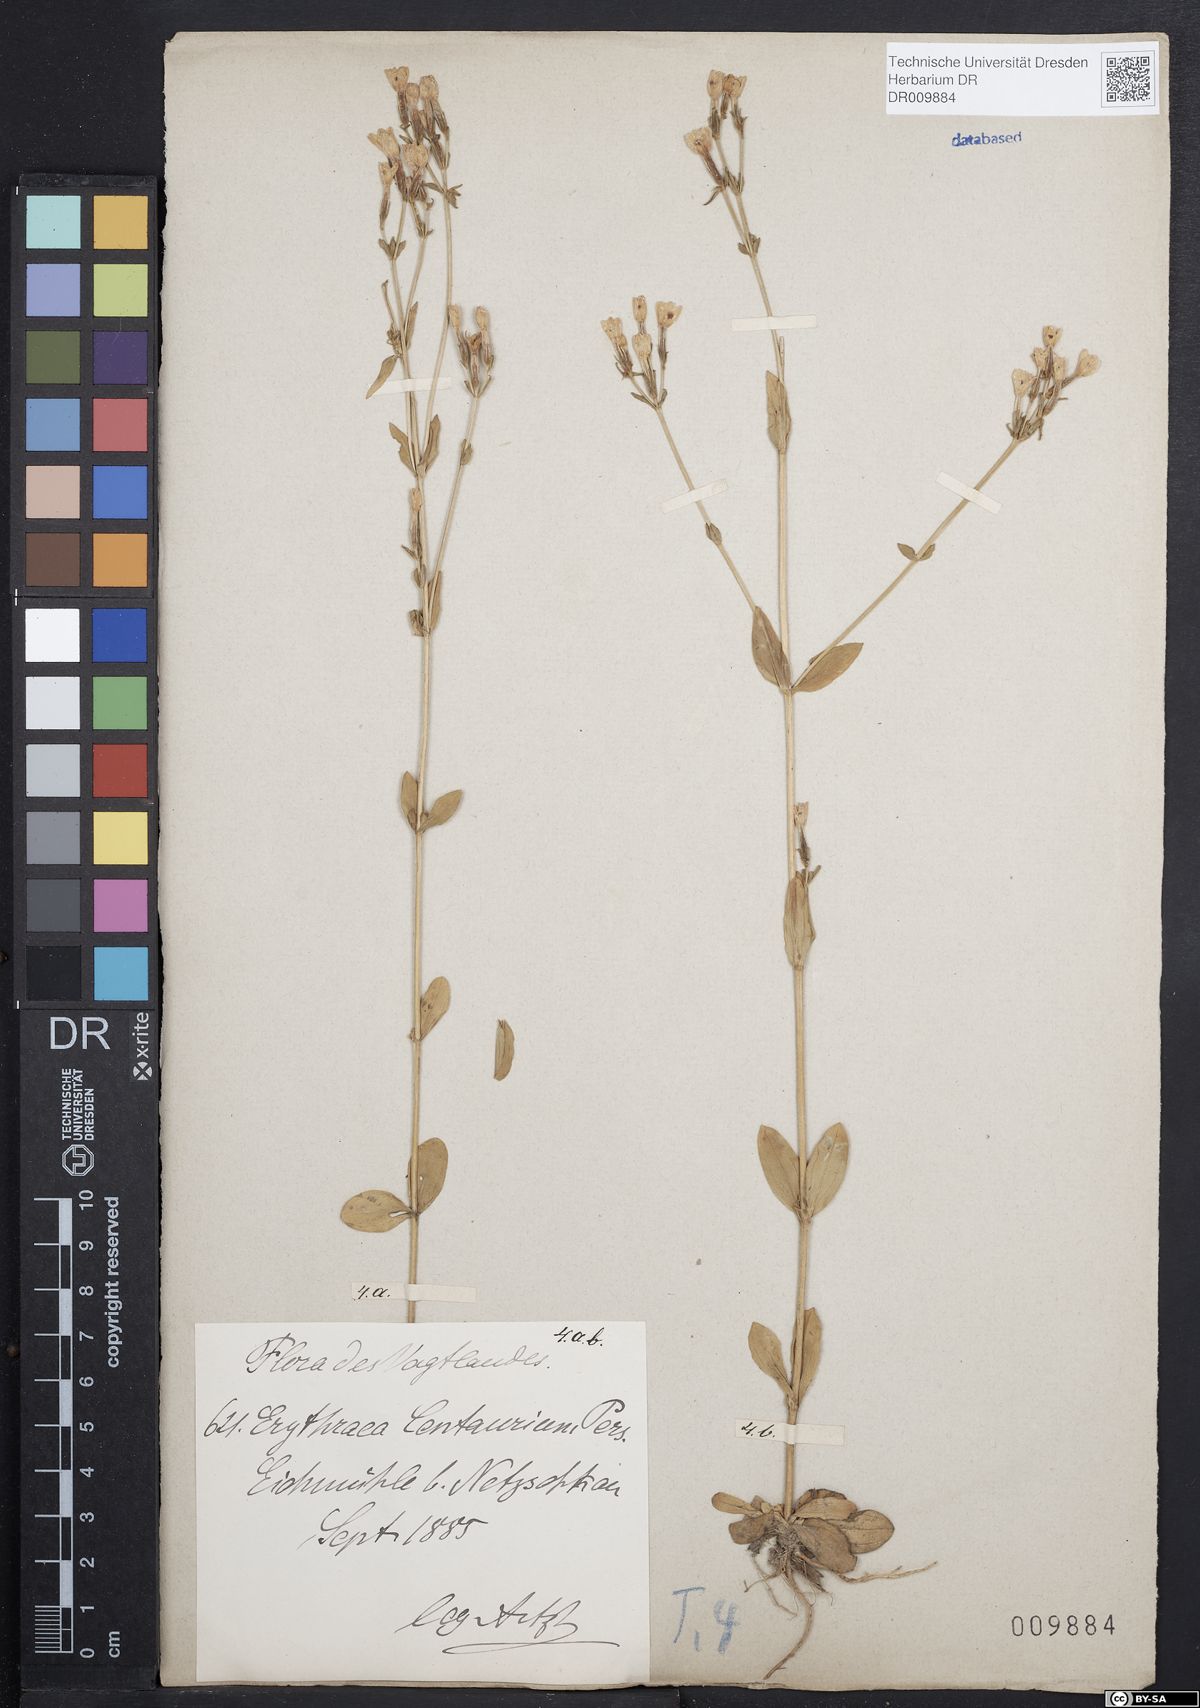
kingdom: Plantae
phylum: Tracheophyta
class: Magnoliopsida
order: Gentianales
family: Gentianaceae
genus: Centaurium
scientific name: Centaurium erythraea
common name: Common centaury
